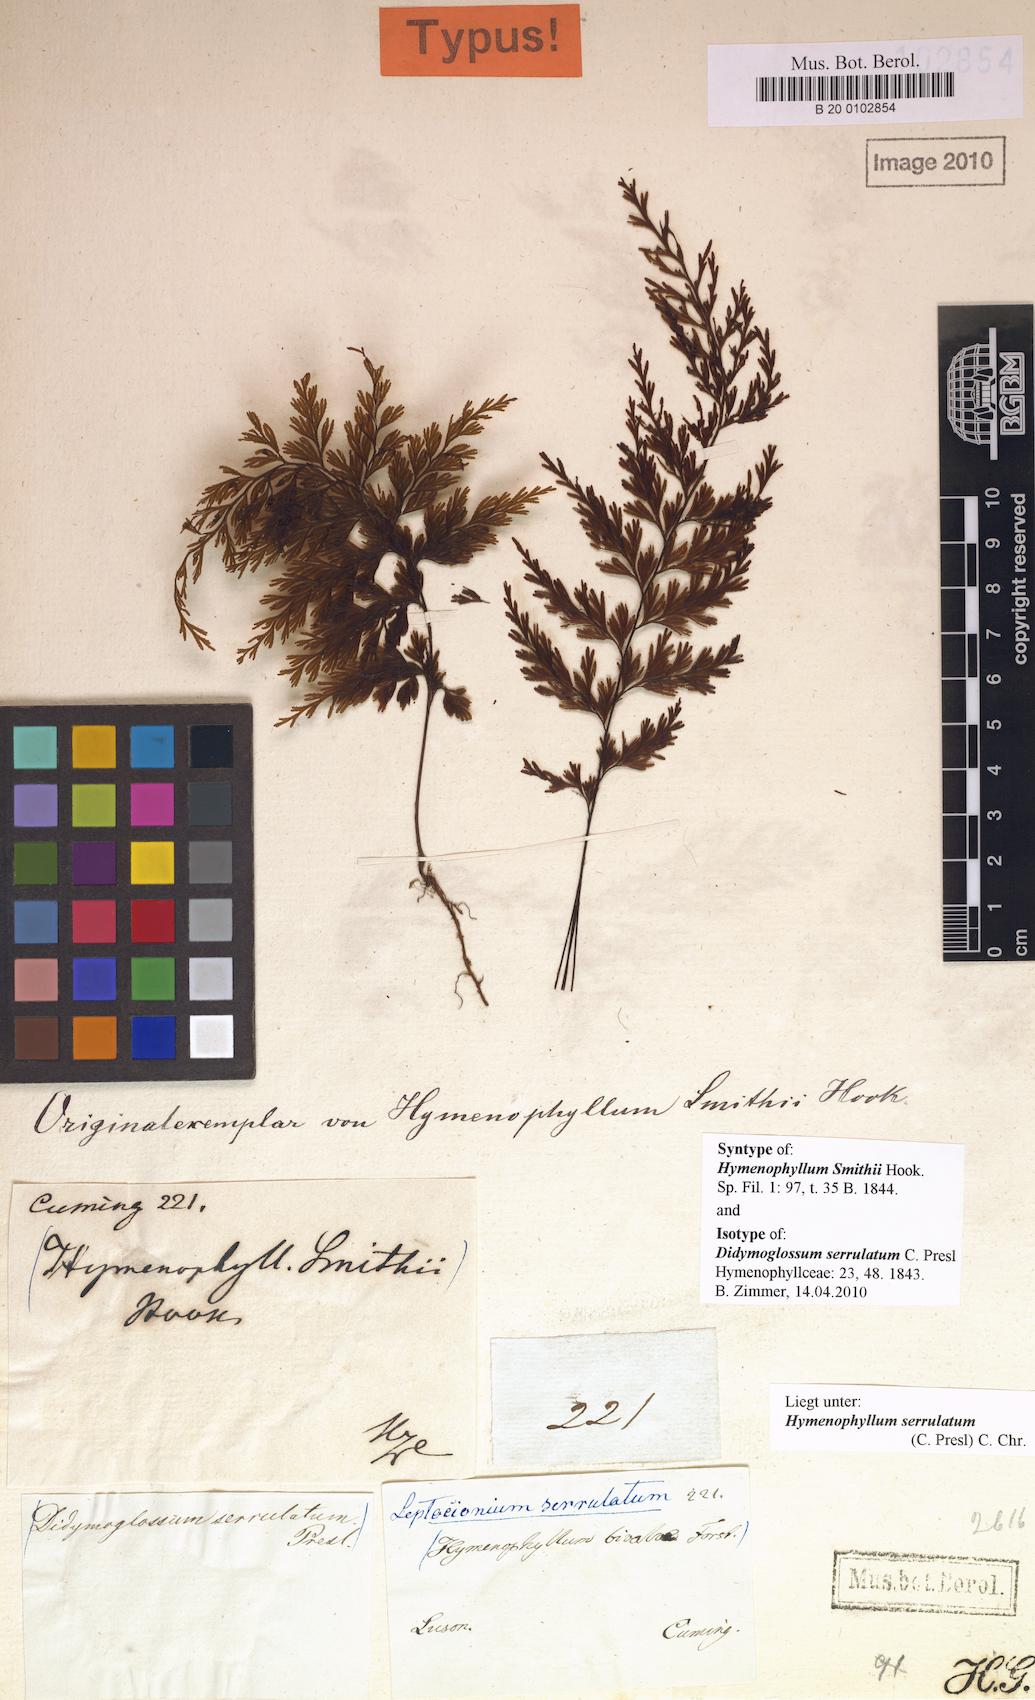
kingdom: Plantae
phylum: Tracheophyta
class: Polypodiopsida
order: Hymenophyllales
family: Hymenophyllaceae
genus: Hymenophyllum
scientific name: Hymenophyllum serrulatum
